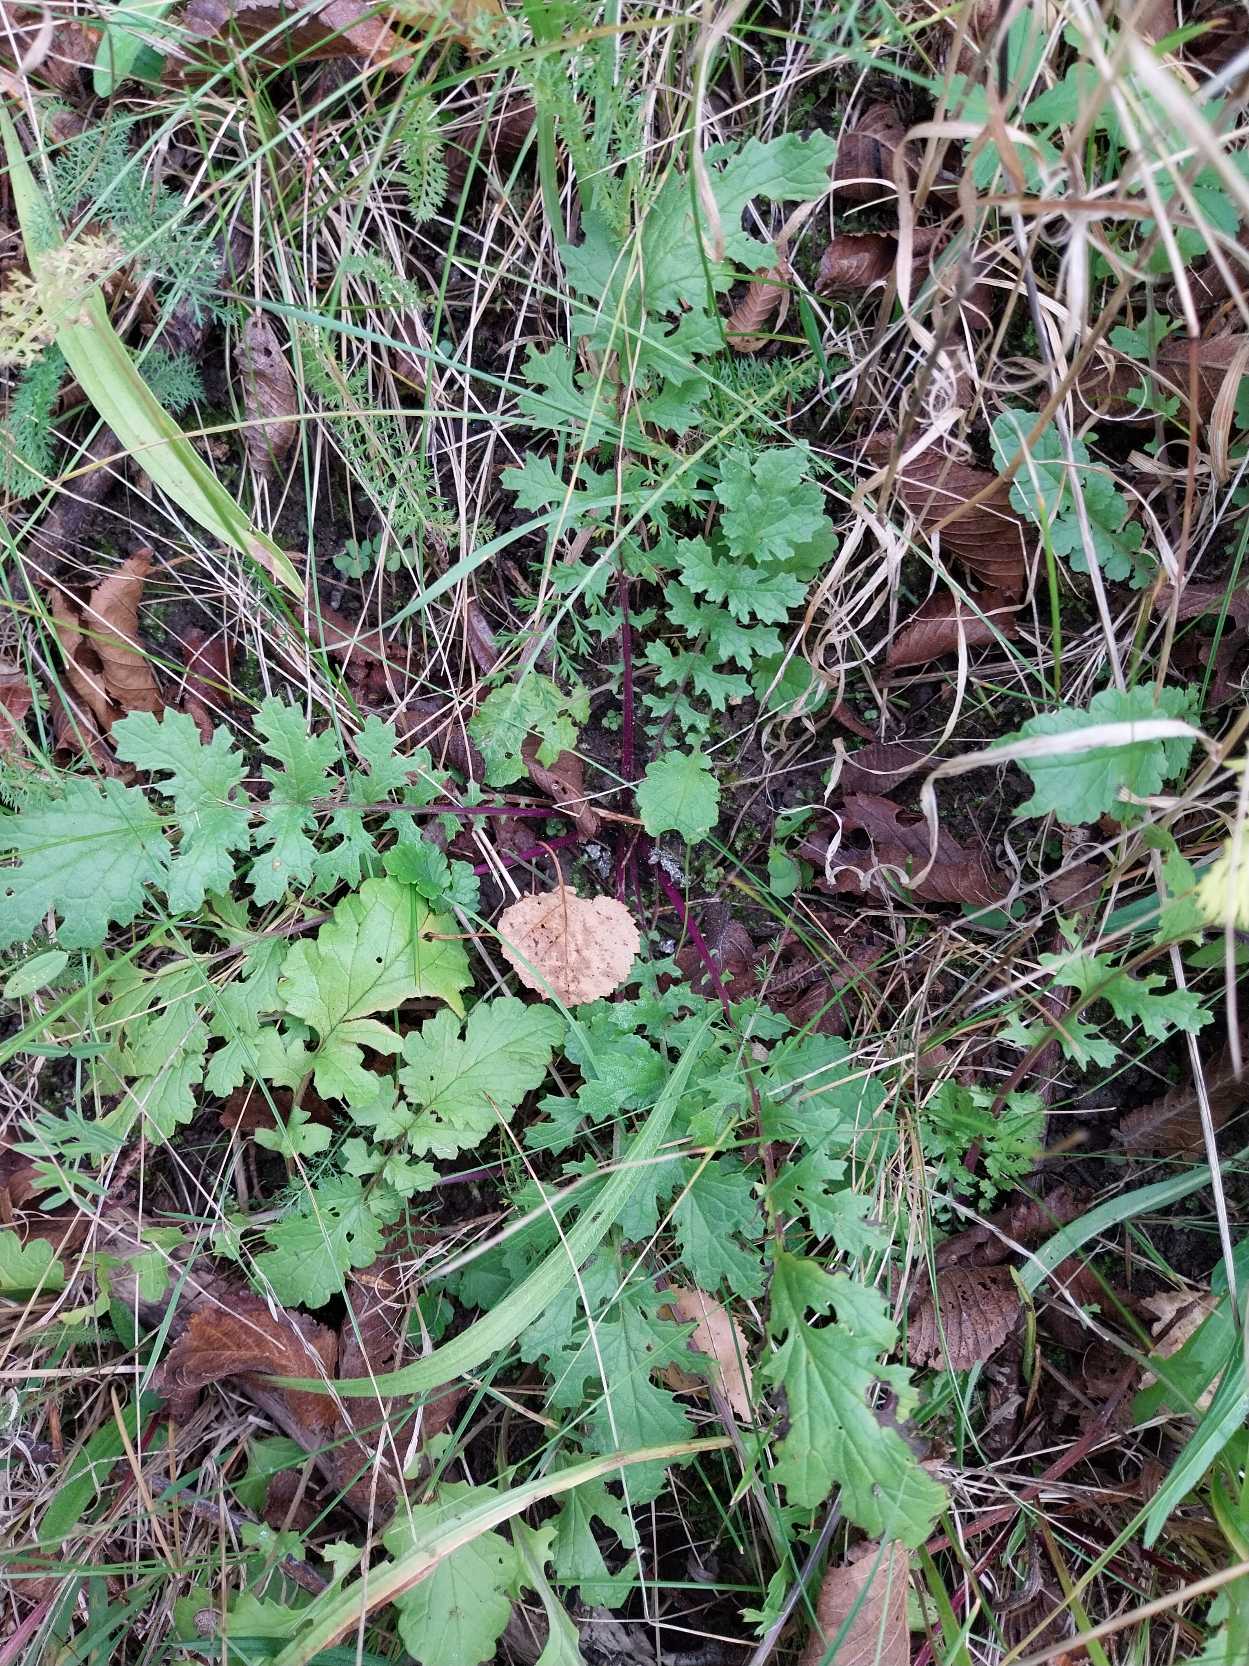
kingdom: Plantae
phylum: Tracheophyta
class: Magnoliopsida
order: Asterales
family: Asteraceae
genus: Jacobaea
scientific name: Jacobaea vulgaris
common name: Eng-brandbæger
